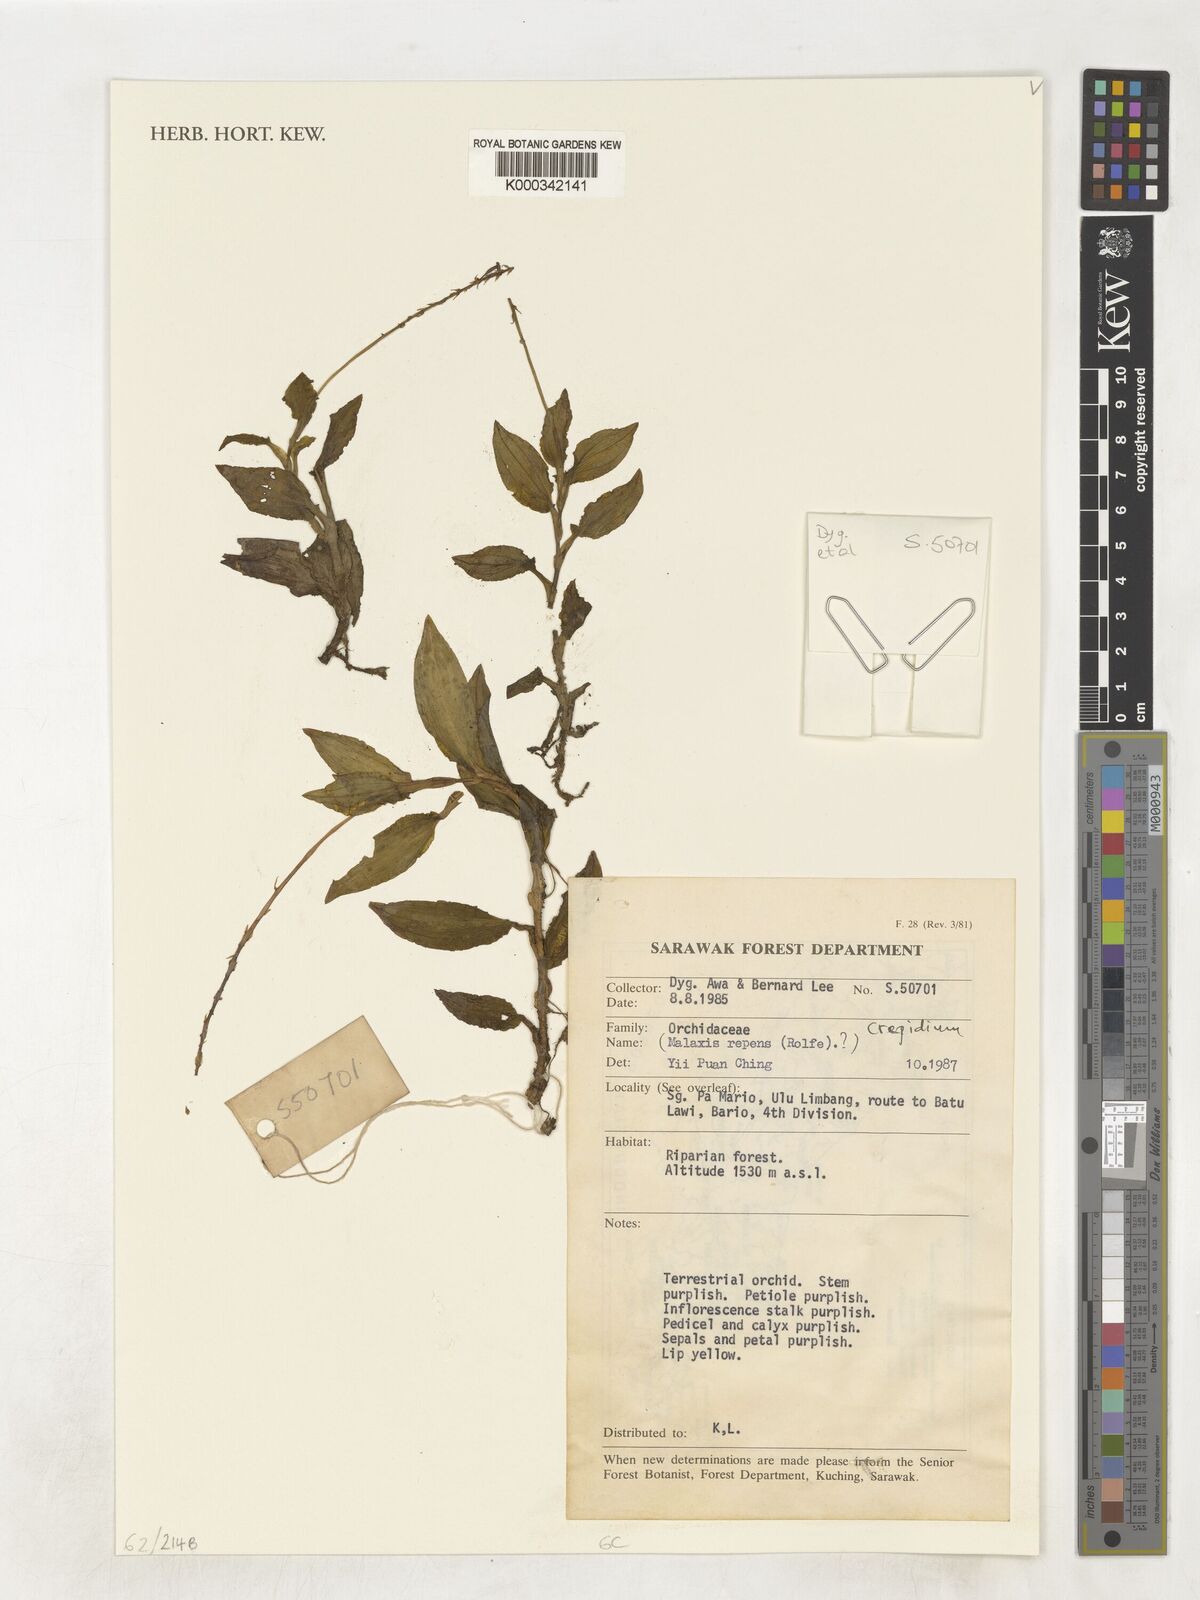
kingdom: Plantae
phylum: Tracheophyta
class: Liliopsida
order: Asparagales
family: Orchidaceae
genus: Crepidium
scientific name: Crepidium
